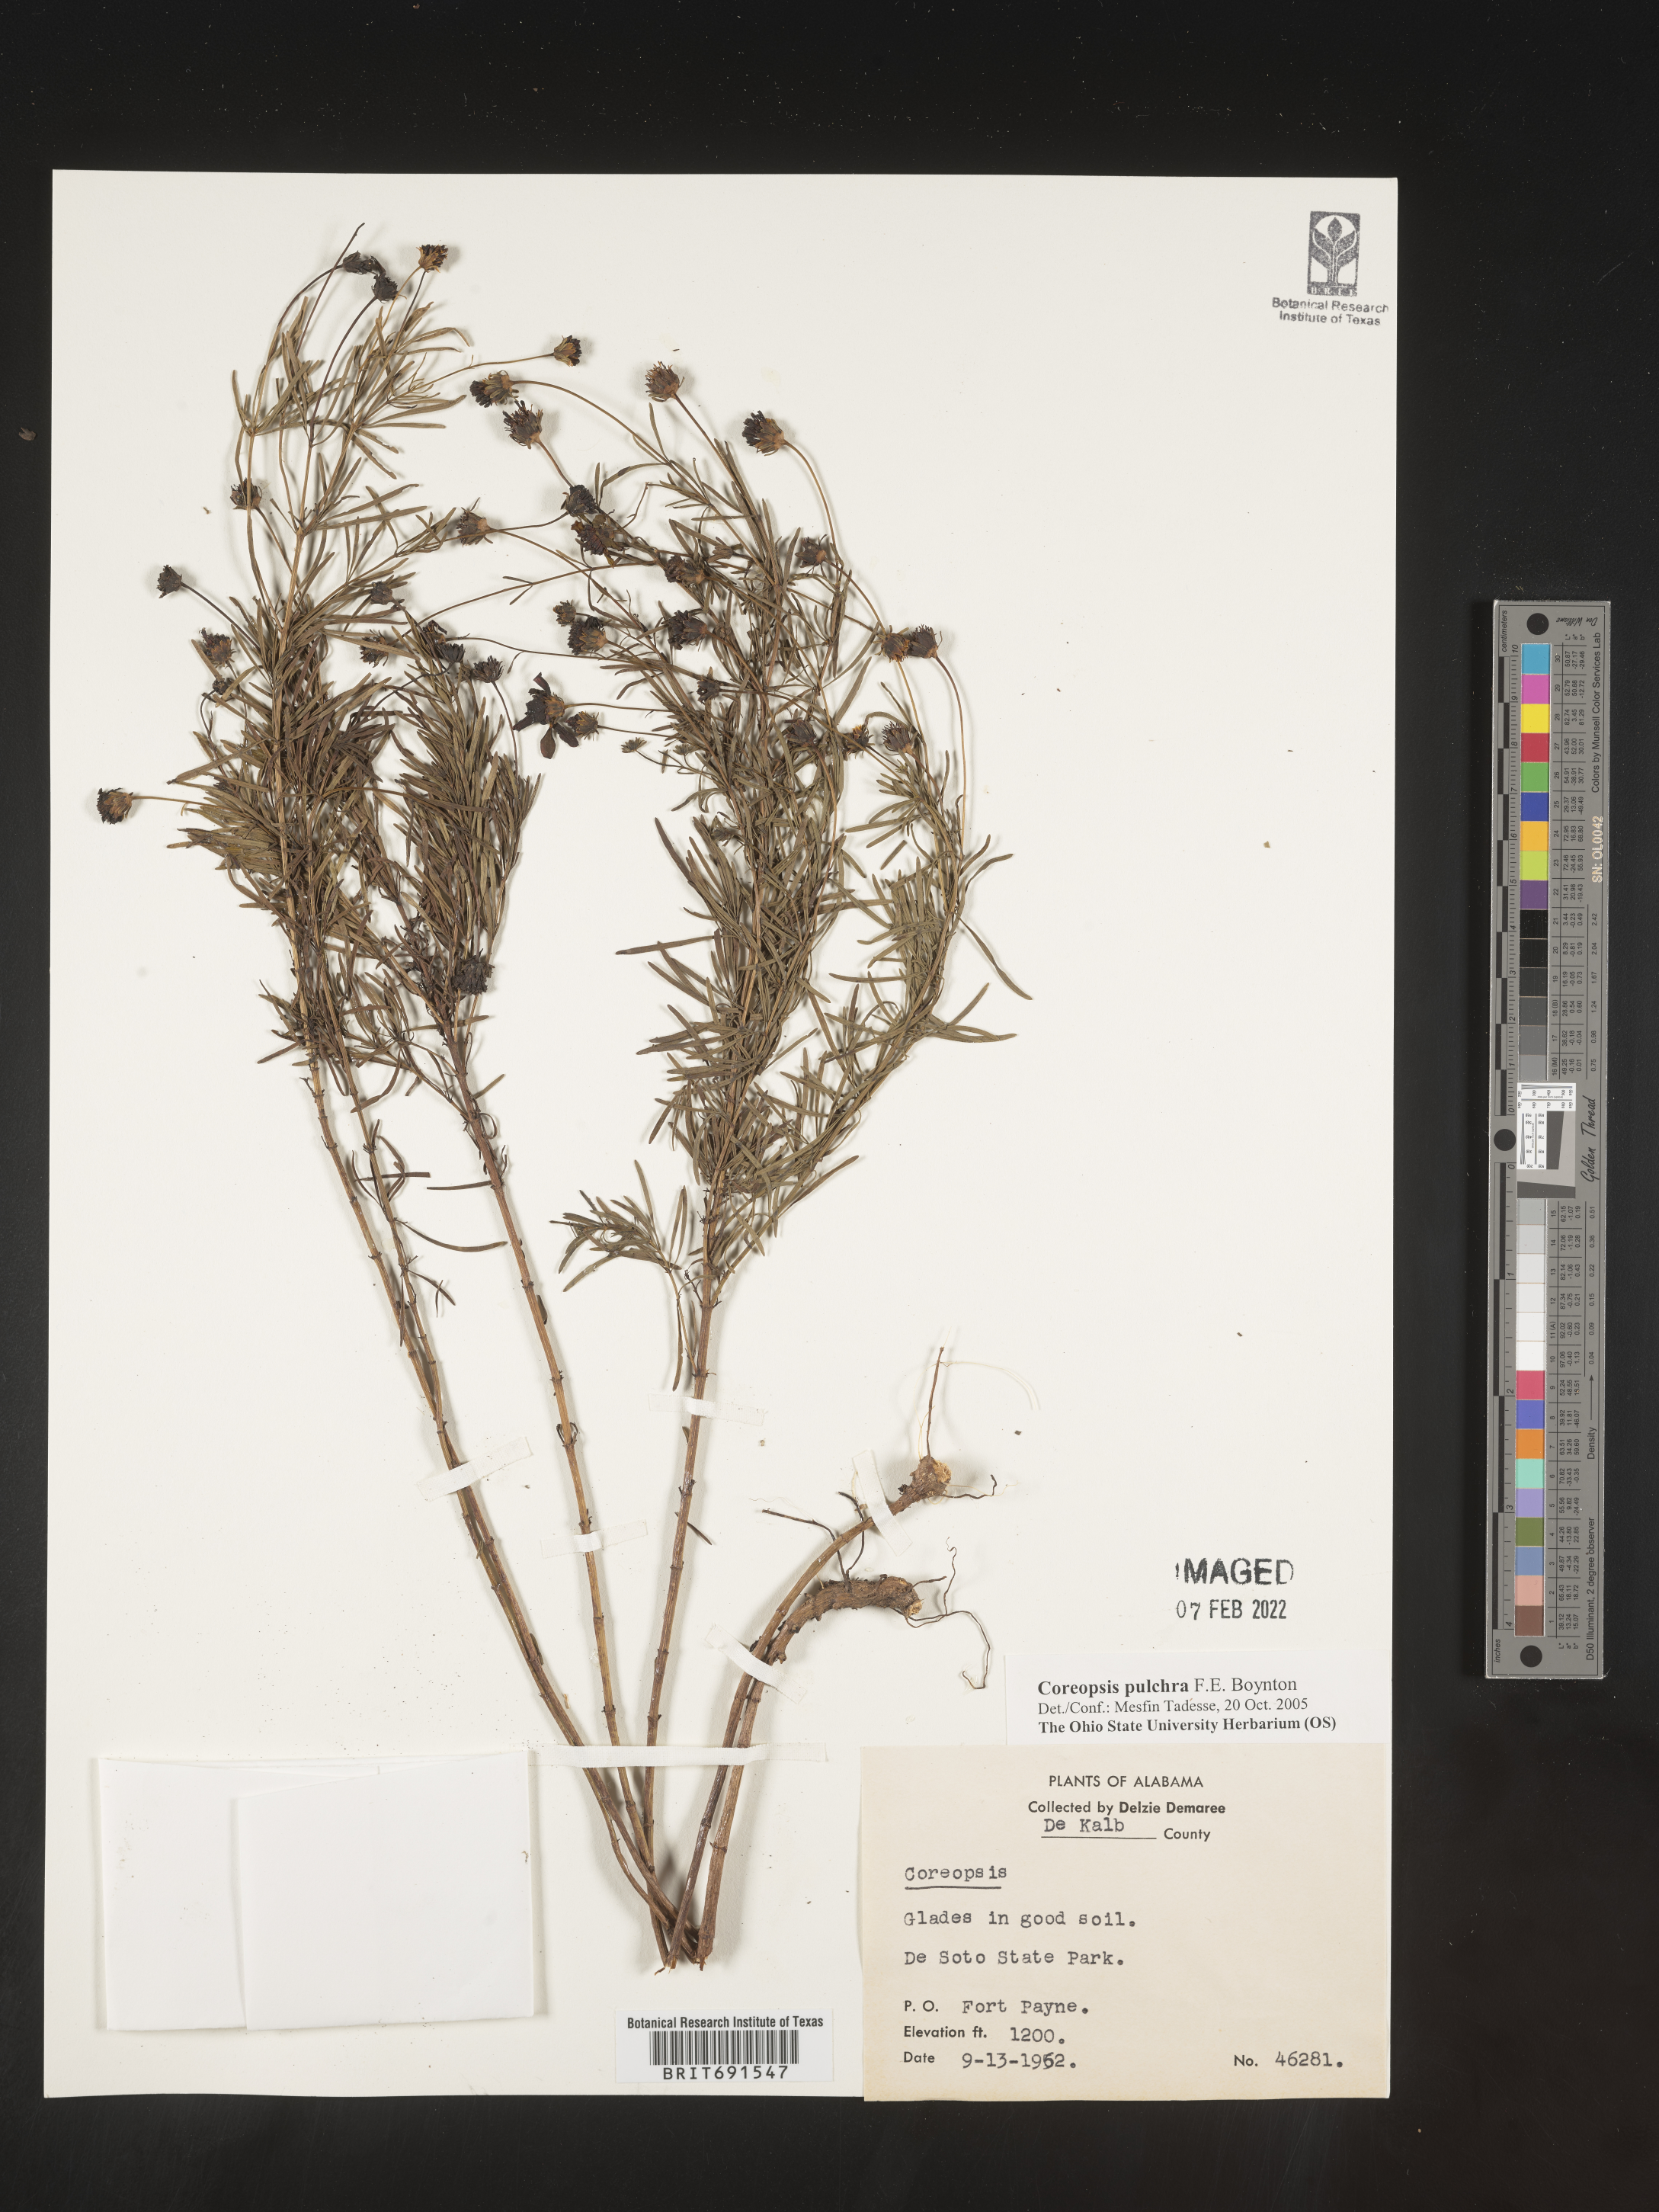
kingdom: Plantae
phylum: Tracheophyta
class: Magnoliopsida
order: Asterales
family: Asteraceae
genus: Coreopsis
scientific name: Coreopsis pulchra
